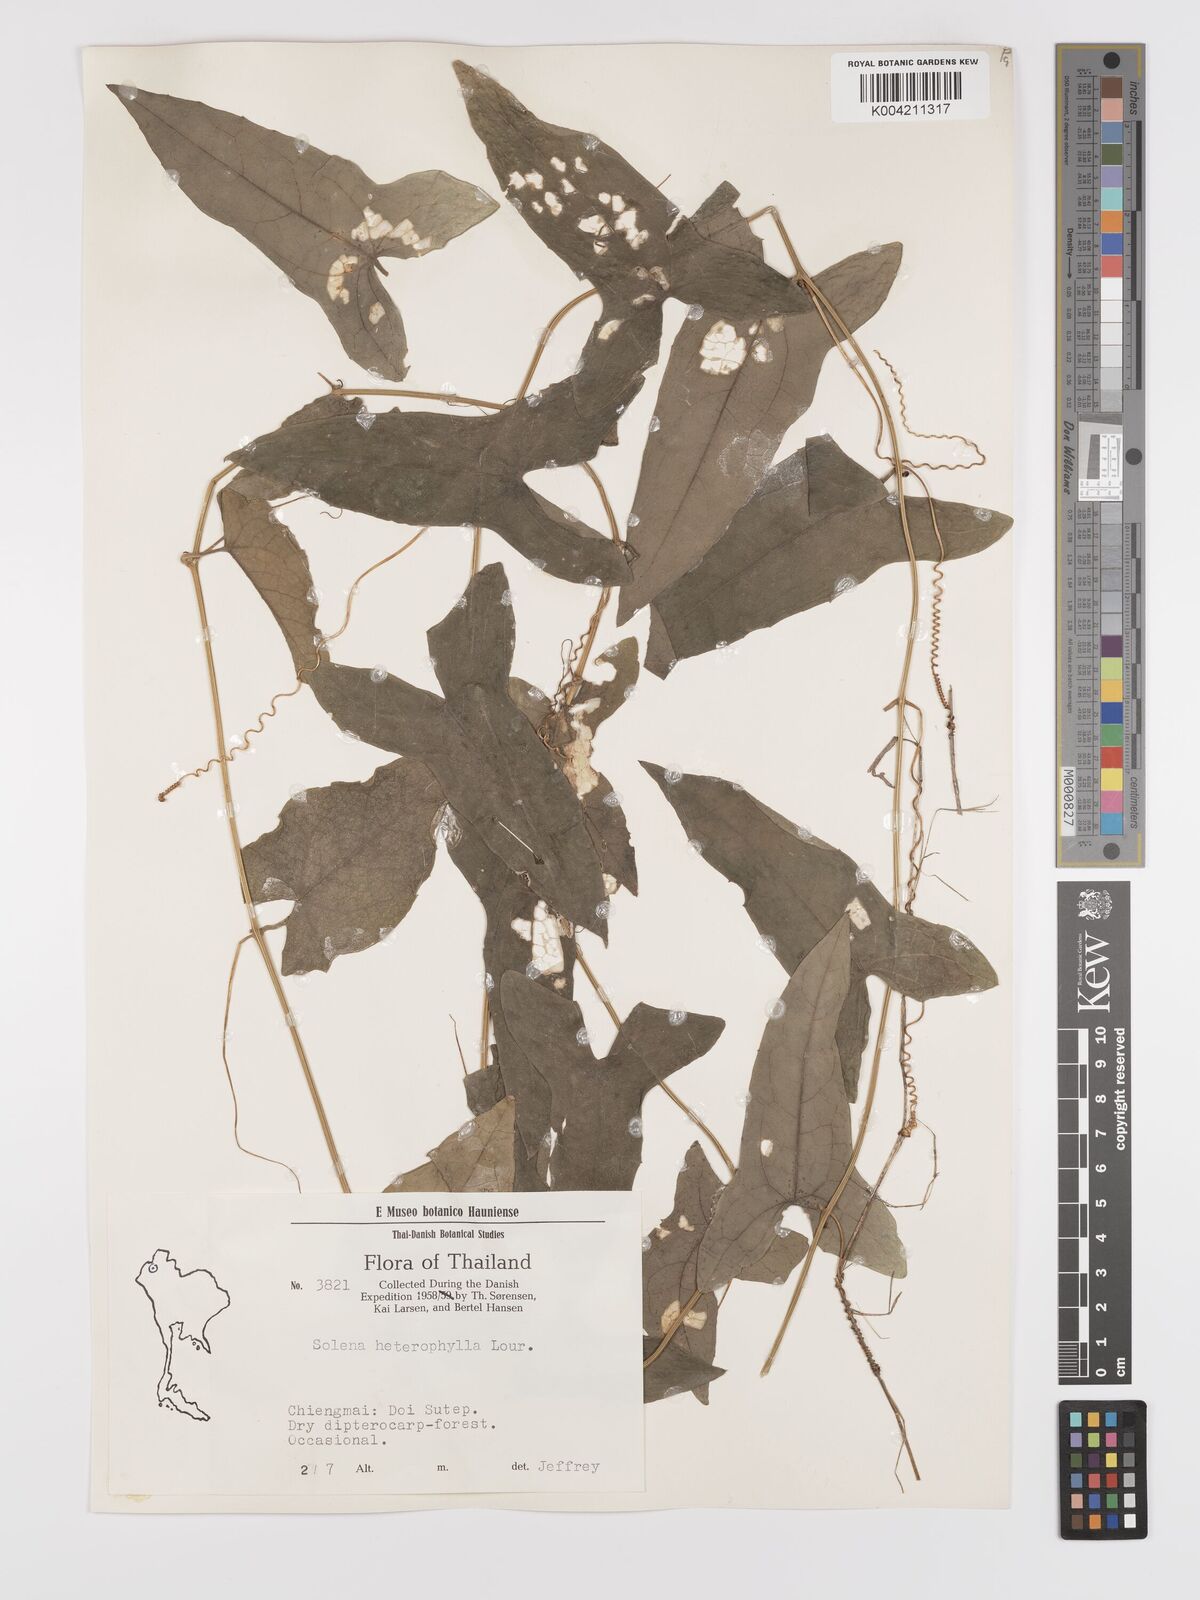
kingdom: Plantae
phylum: Tracheophyta
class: Magnoliopsida
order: Cucurbitales
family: Cucurbitaceae
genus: Solena
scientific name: Solena amplexicaulis
